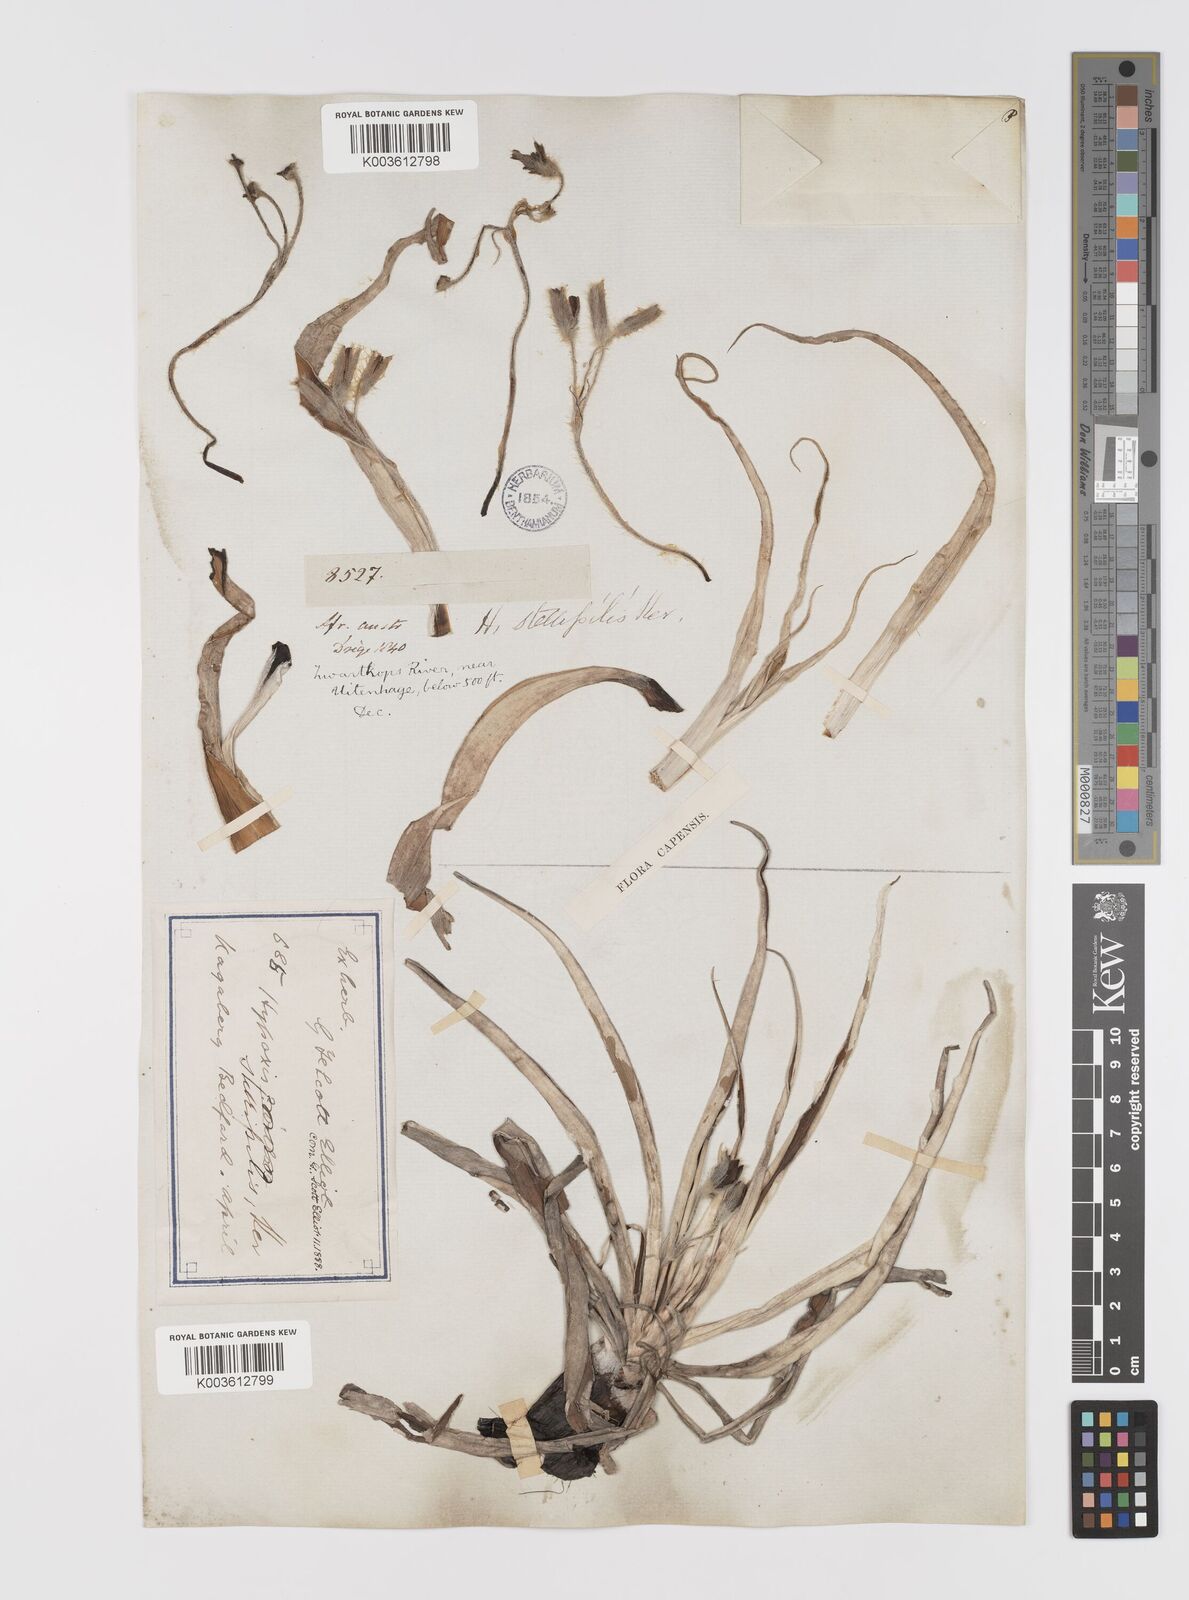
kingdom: Plantae
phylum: Tracheophyta
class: Liliopsida
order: Asparagales
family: Hypoxidaceae
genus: Hypoxis
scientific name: Hypoxis stellipilis
